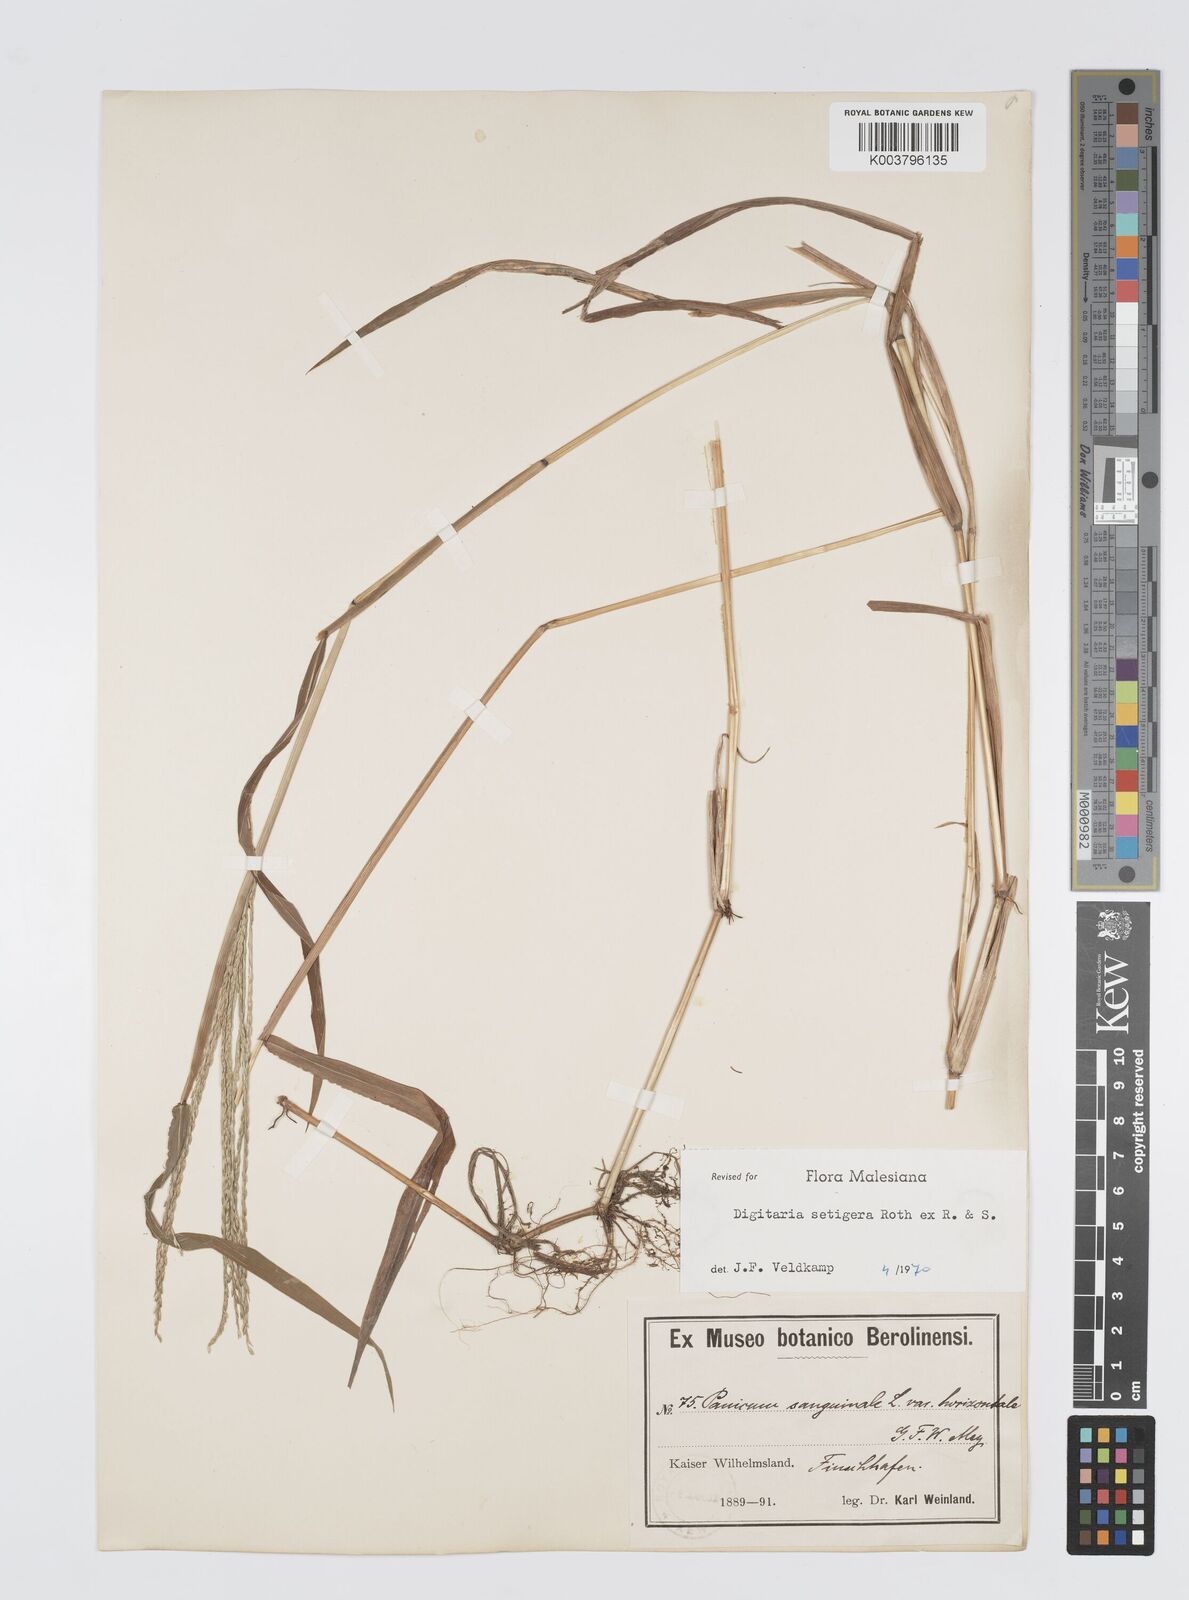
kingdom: Plantae
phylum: Tracheophyta
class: Liliopsida
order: Poales
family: Poaceae
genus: Digitaria
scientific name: Digitaria setigera
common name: East indian crabgrass
